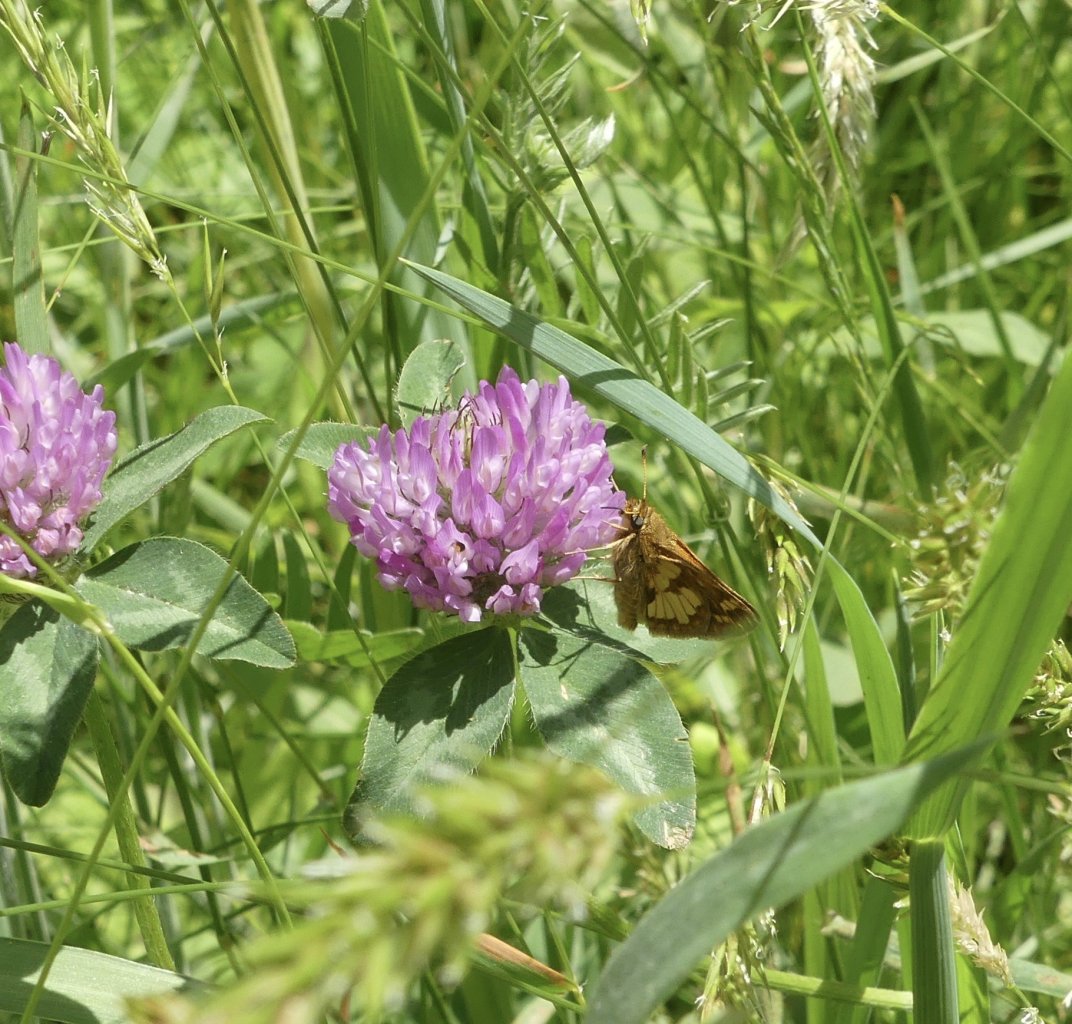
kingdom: Animalia
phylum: Arthropoda
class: Insecta
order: Lepidoptera
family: Hesperiidae
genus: Polites
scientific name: Polites coras
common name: Peck's Skipper
